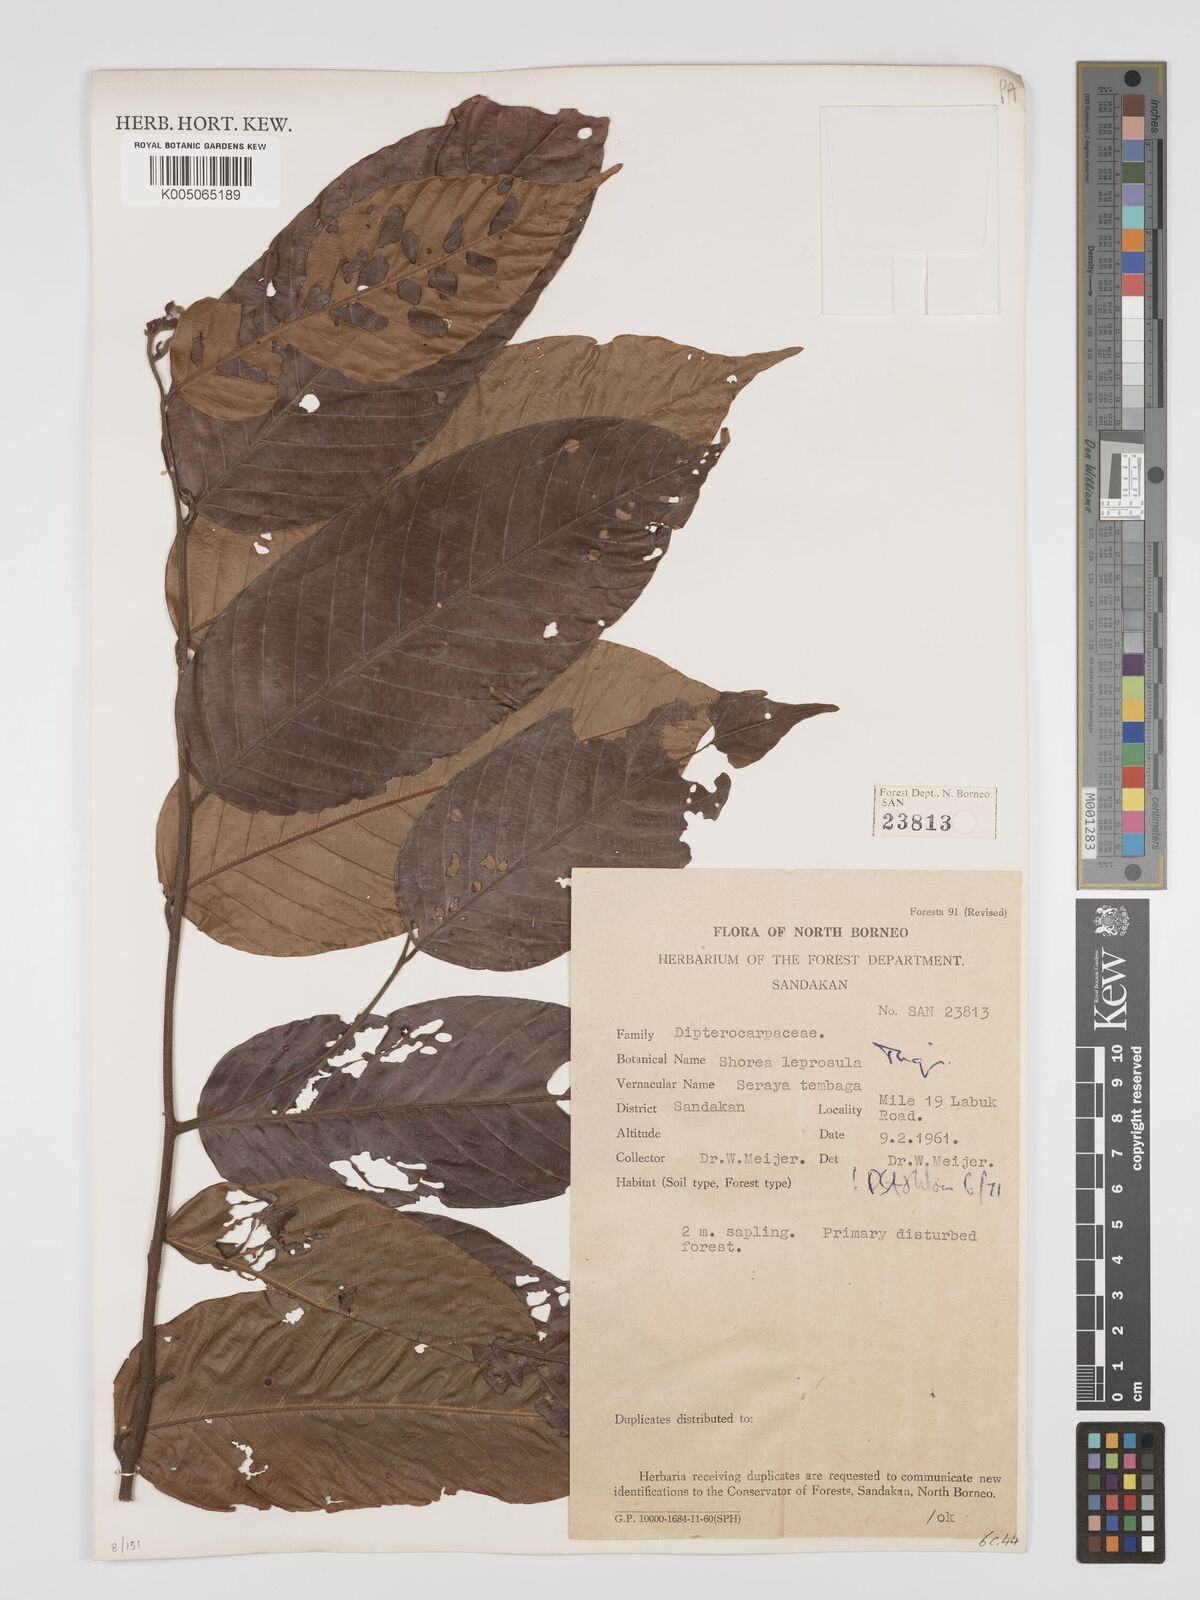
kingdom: Plantae
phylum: Tracheophyta
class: Magnoliopsida
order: Malvales
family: Dipterocarpaceae
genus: Shorea
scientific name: Shorea leprosula
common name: Light red meranti
